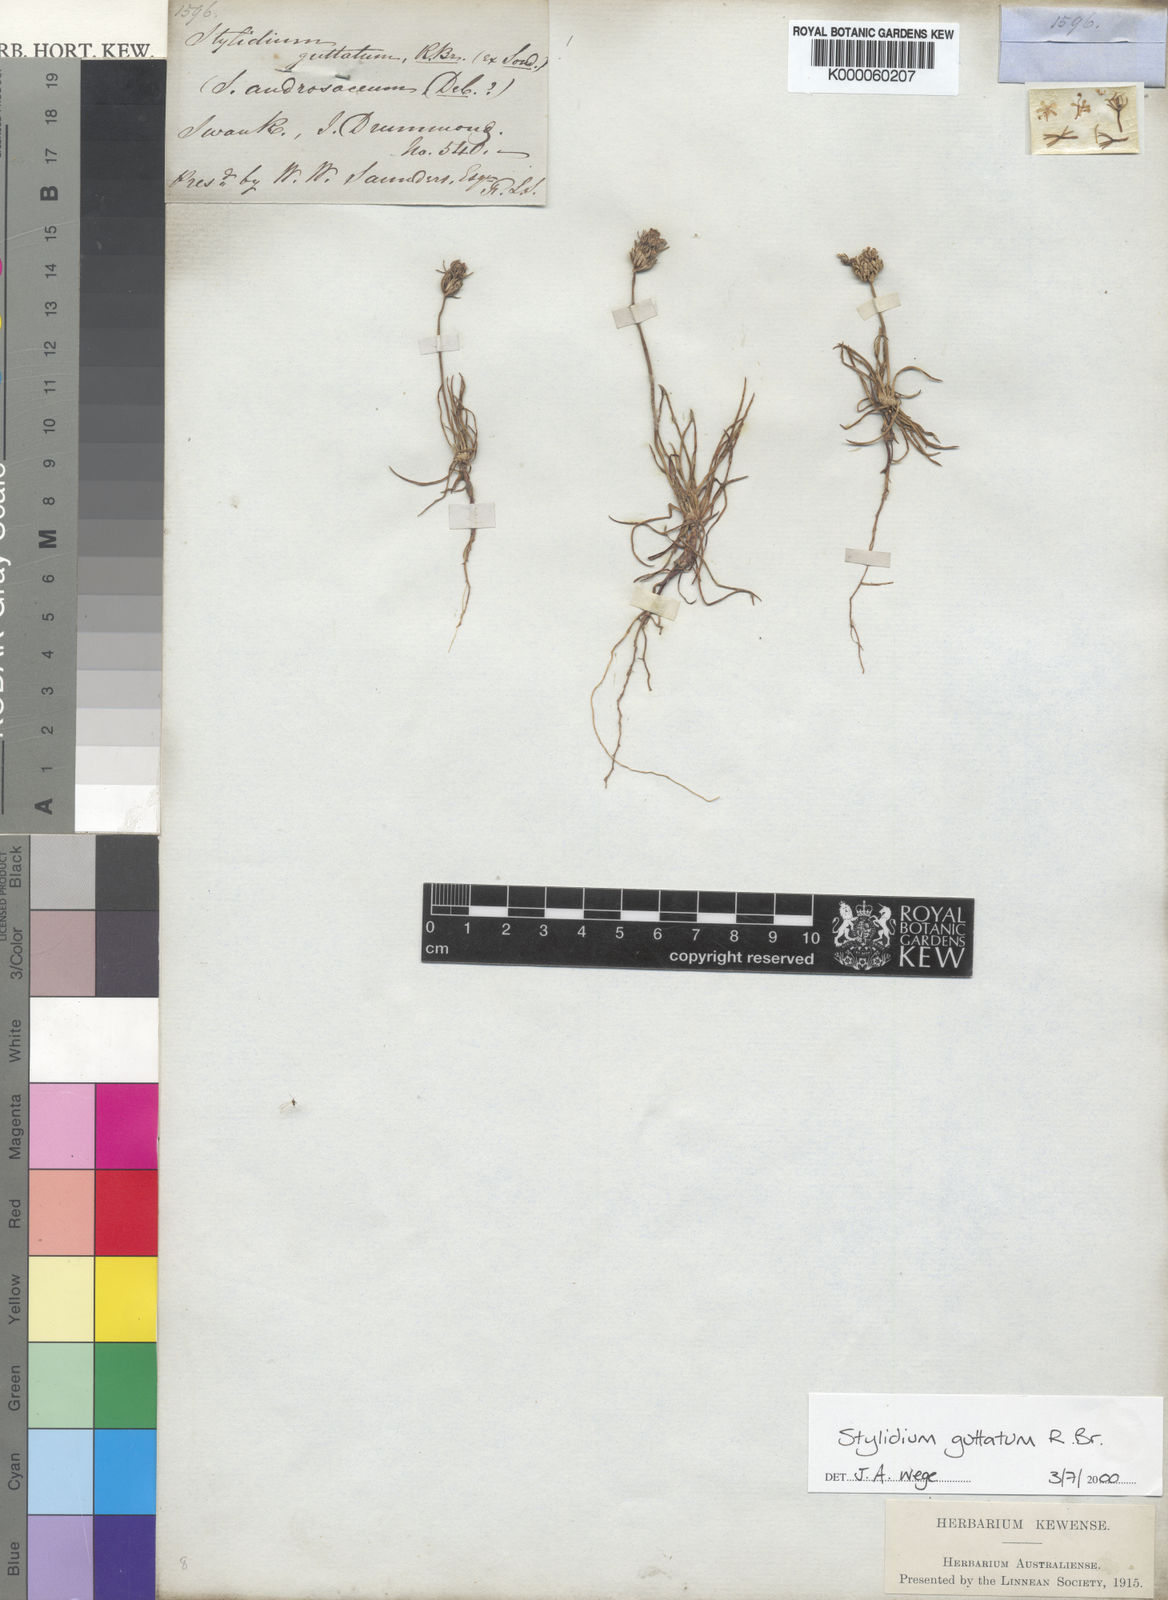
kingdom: Plantae
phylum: Tracheophyta
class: Magnoliopsida
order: Asterales
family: Stylidiaceae
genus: Stylidium
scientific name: Stylidium guttatum
